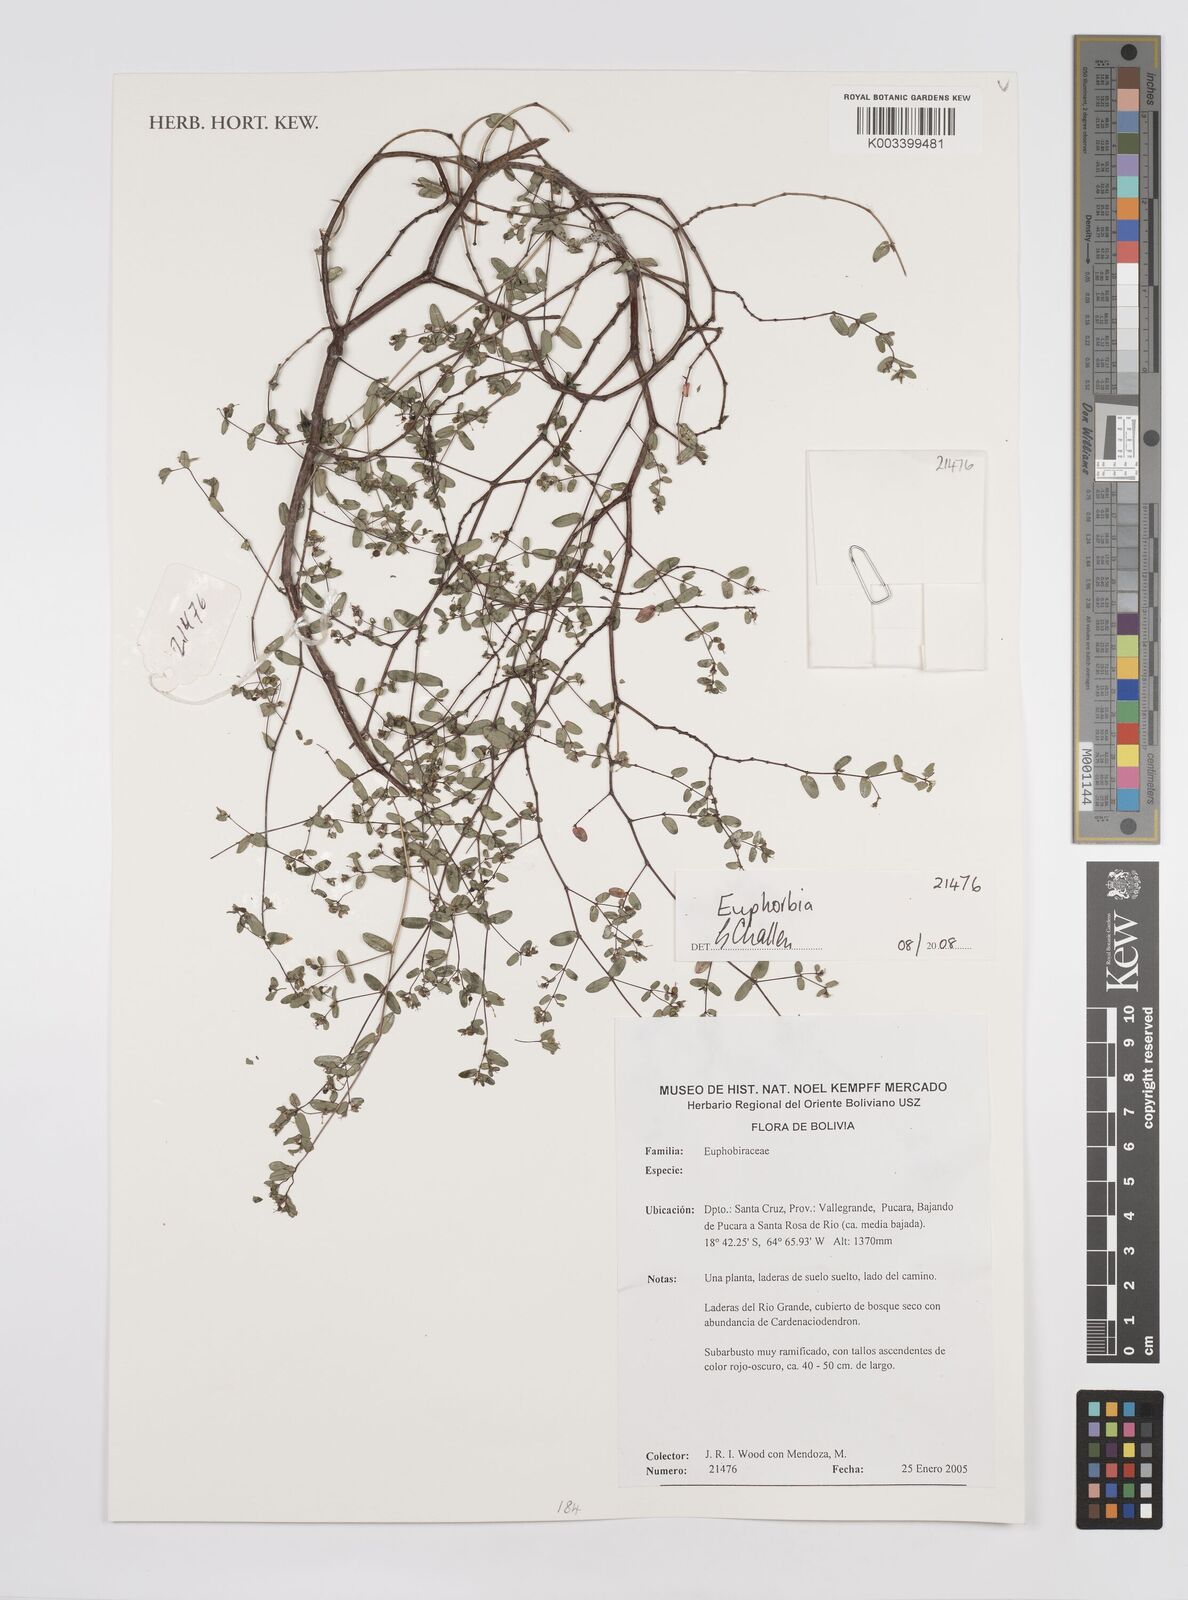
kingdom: Plantae
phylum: Tracheophyta
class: Magnoliopsida
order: Malpighiales
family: Euphorbiaceae
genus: Euphorbia
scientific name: Euphorbia
